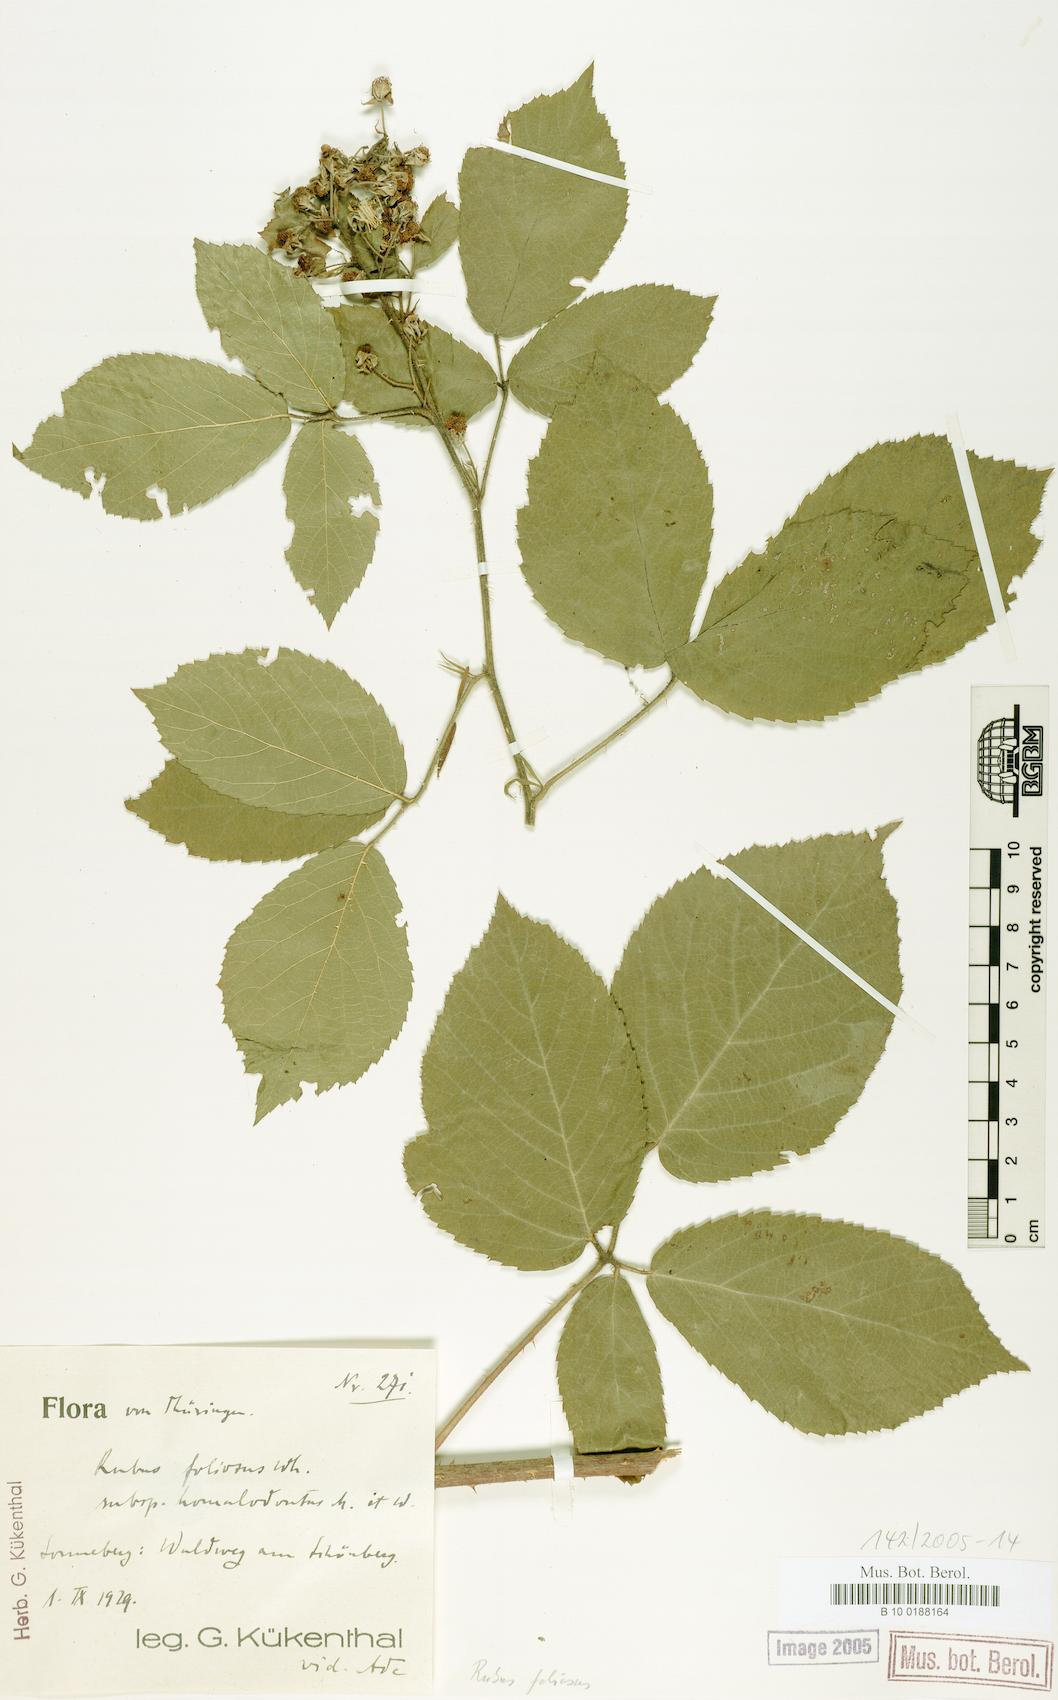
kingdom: Plantae
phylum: Tracheophyta
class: Magnoliopsida
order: Rosales
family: Rosaceae
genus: Rubus
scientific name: Rubus silvae-thuringiae
